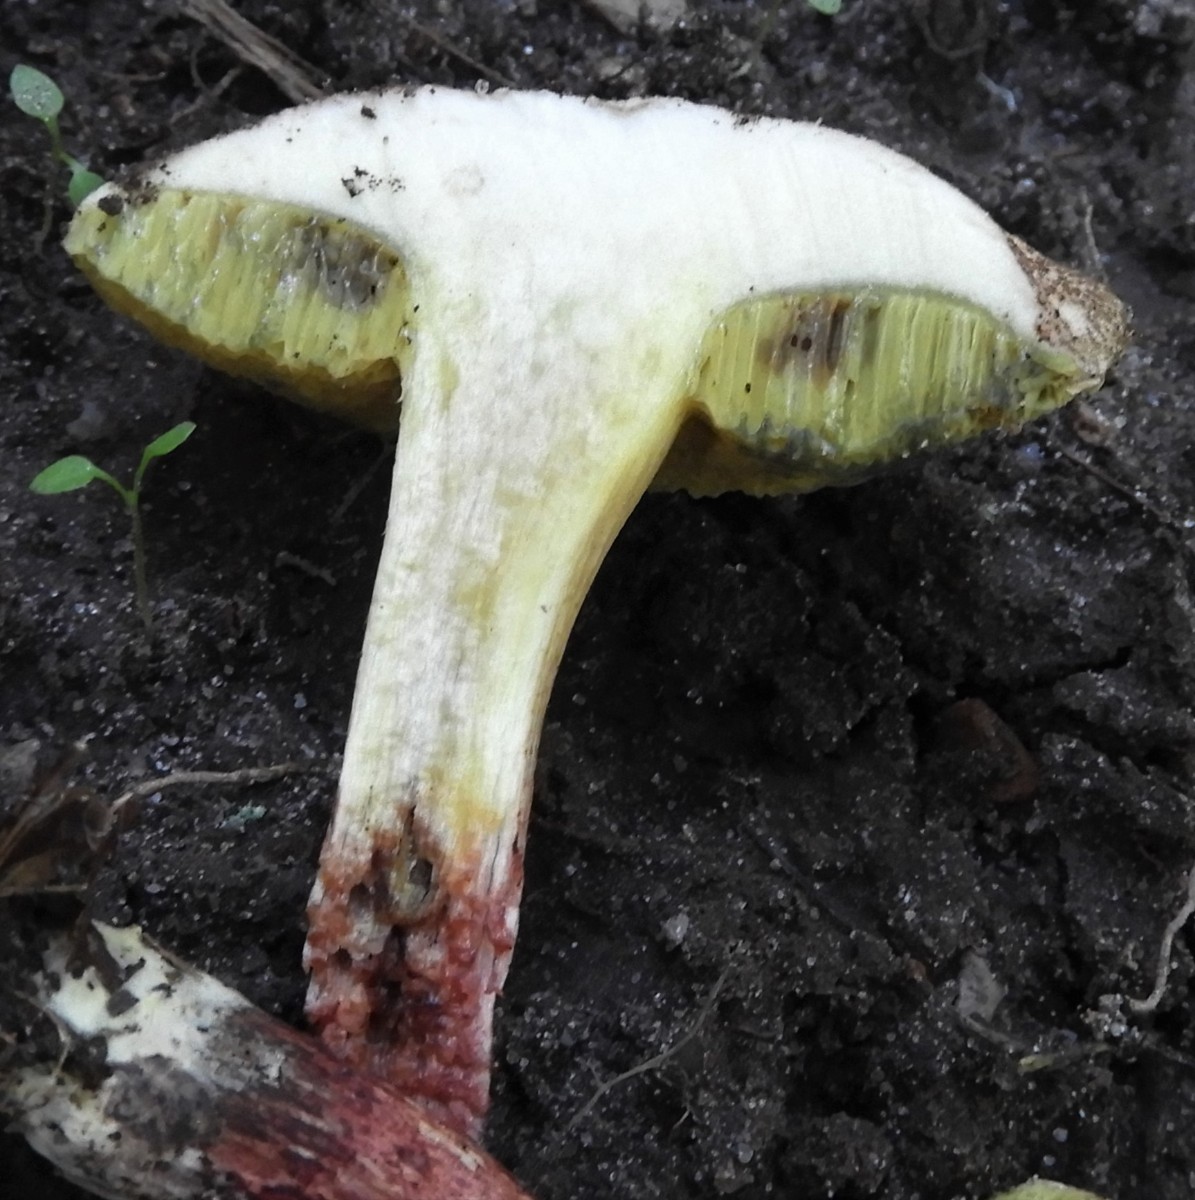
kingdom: Fungi
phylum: Basidiomycota
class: Agaricomycetes
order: Boletales
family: Boletaceae
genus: Xerocomellus
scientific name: Xerocomellus chrysenteron
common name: rødsprukken rørhat
